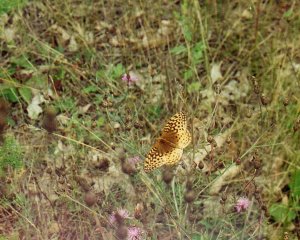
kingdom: Animalia
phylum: Arthropoda
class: Insecta
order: Lepidoptera
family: Nymphalidae
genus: Speyeria
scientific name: Speyeria cybele
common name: Great Spangled Fritillary
